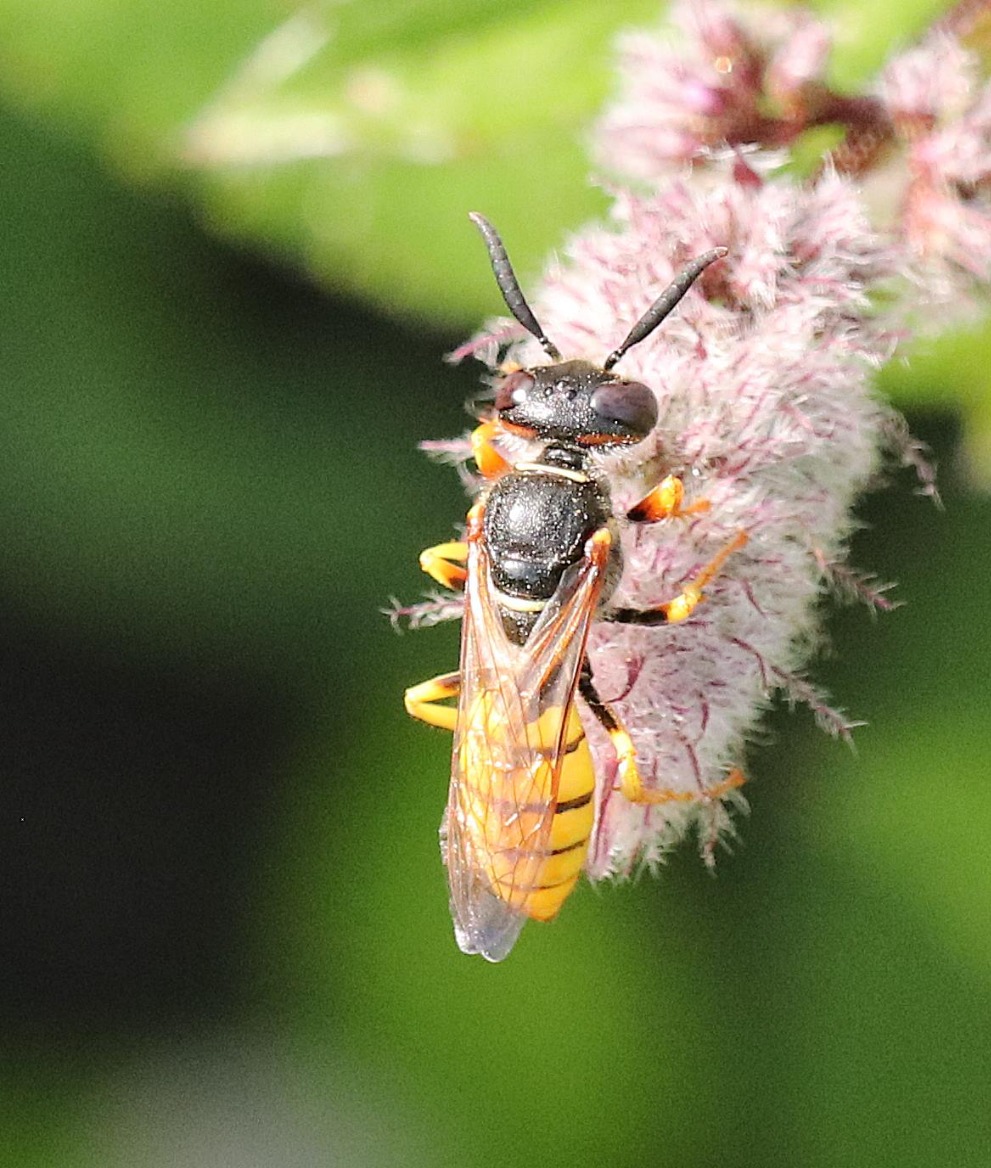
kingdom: Animalia
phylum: Arthropoda
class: Insecta
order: Hymenoptera
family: Crabronidae
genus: Philanthus
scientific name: Philanthus triangulum
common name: Biulv
